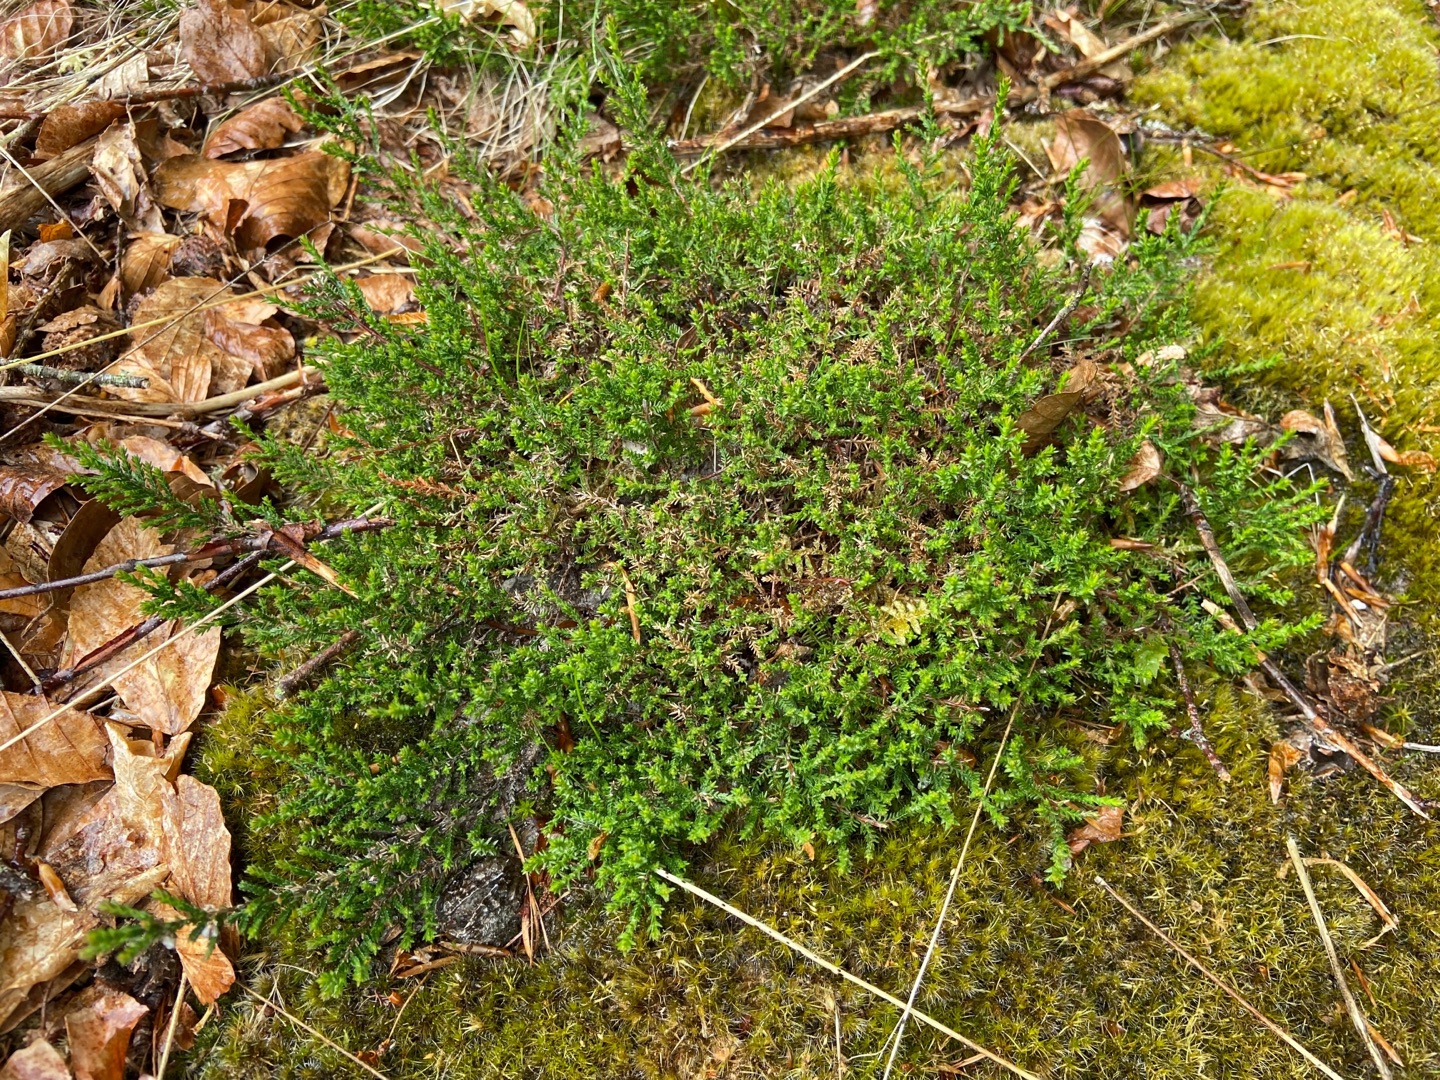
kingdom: Plantae
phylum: Tracheophyta
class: Magnoliopsida
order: Ericales
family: Ericaceae
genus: Calluna
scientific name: Calluna vulgaris
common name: Hedelyng
